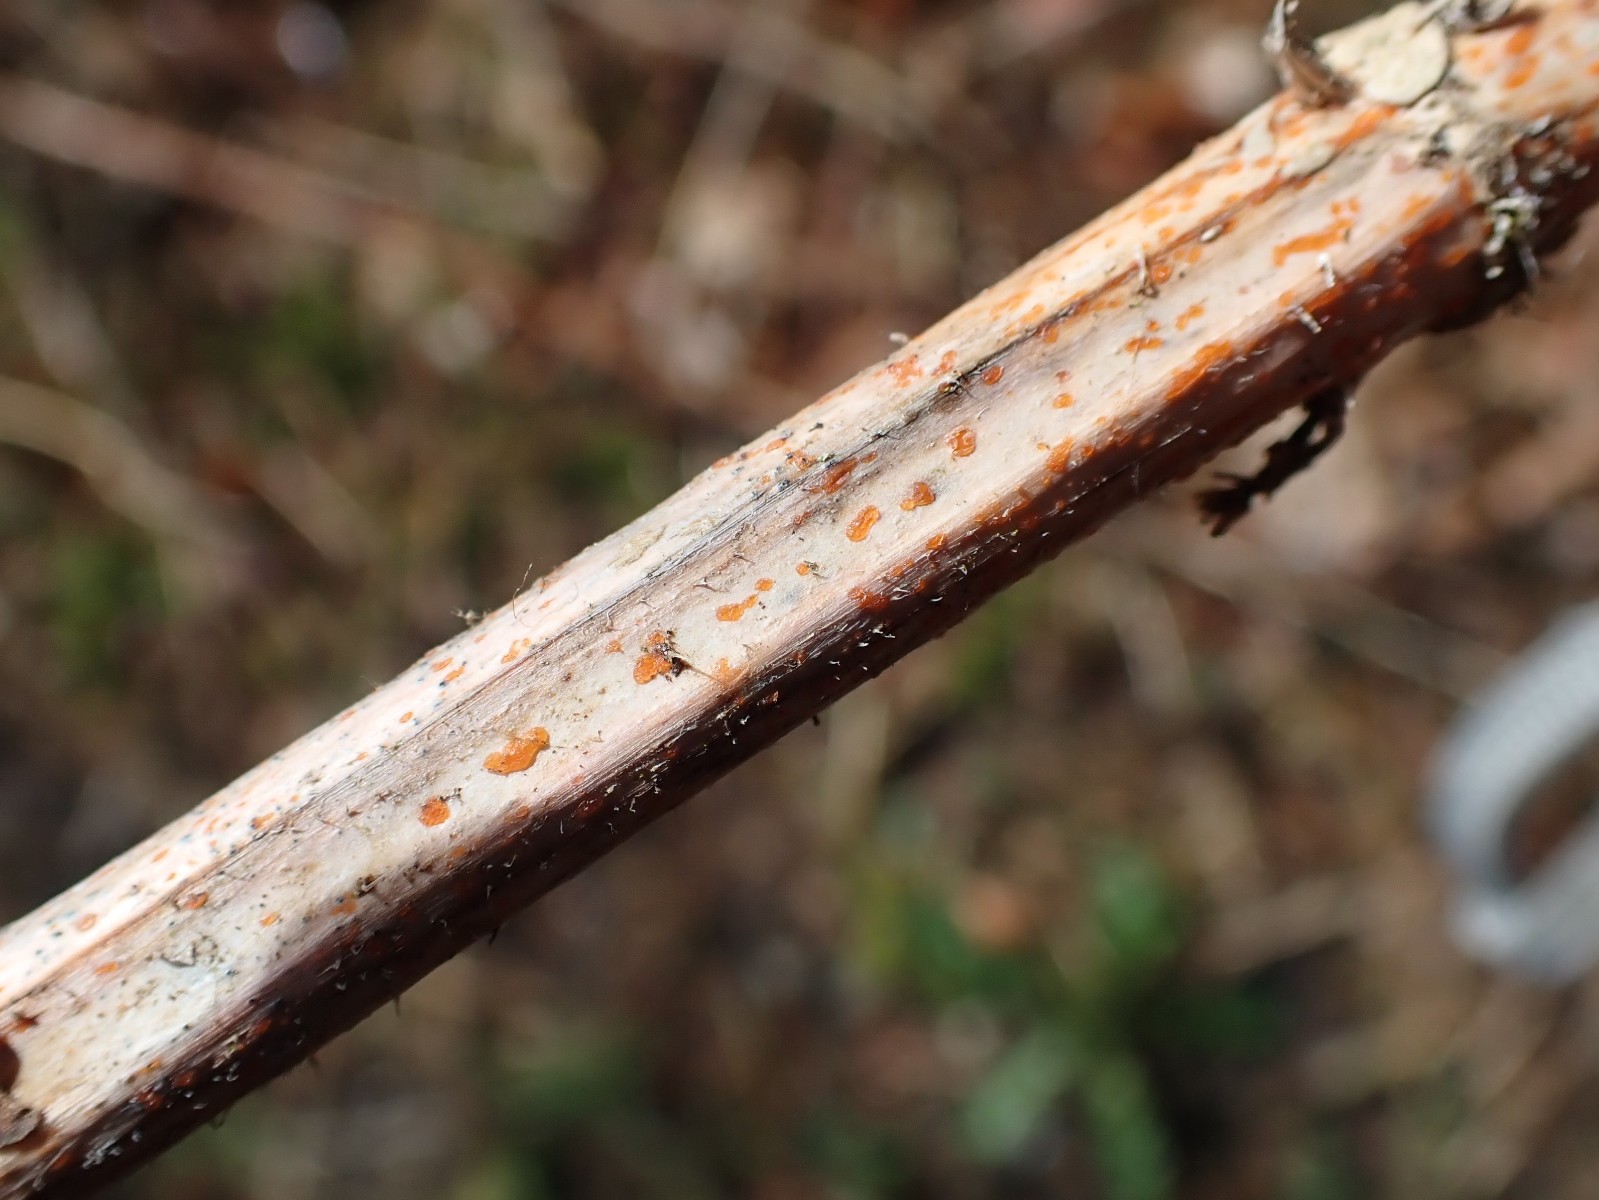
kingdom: Fungi
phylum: Ascomycota
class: Leotiomycetes
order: Helotiales
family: Calloriaceae
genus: Calloria
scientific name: Calloria urticae
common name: nælde-orangeskive
